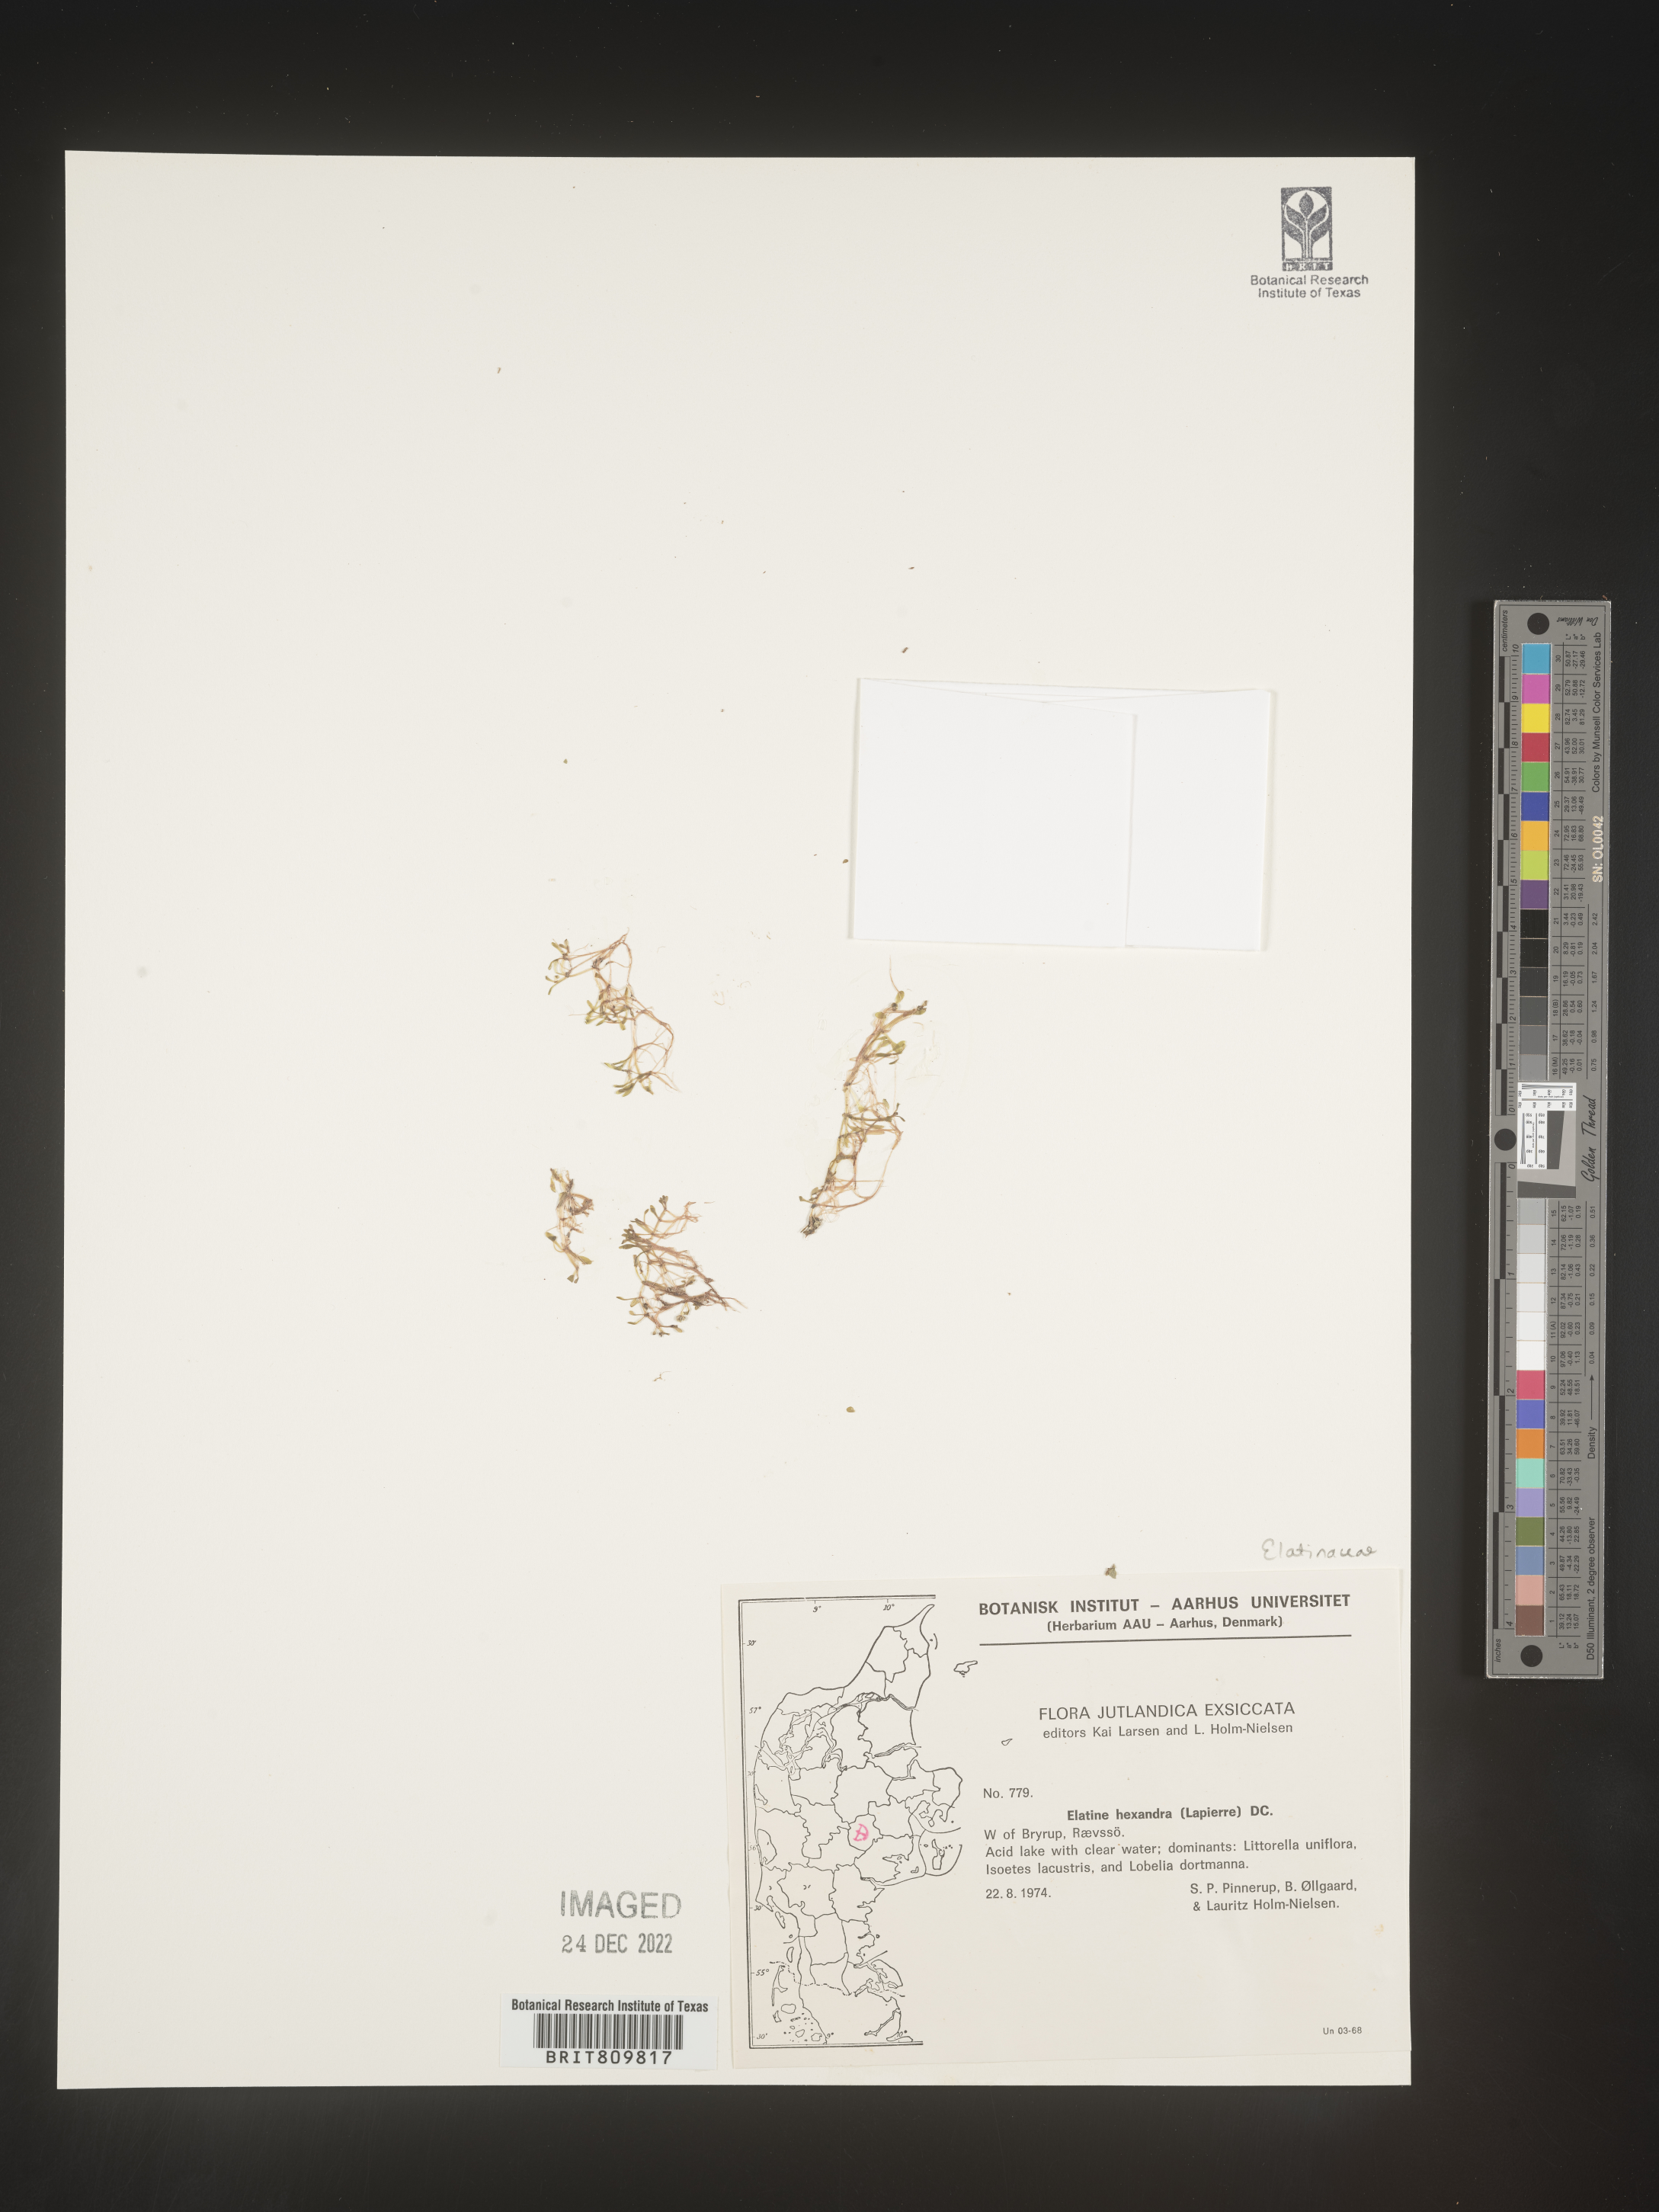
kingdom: Plantae
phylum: Tracheophyta
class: Magnoliopsida
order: Malpighiales
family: Elatinaceae
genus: Elatine
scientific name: Elatine
